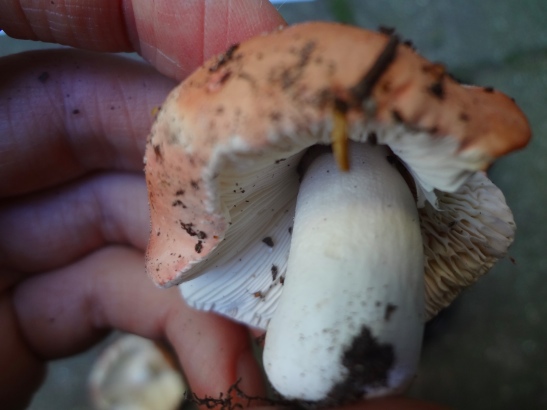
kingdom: Fungi
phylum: Basidiomycota
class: Agaricomycetes
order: Russulales
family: Russulaceae
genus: Russula
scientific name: Russula aurora
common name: rosa skørhat
